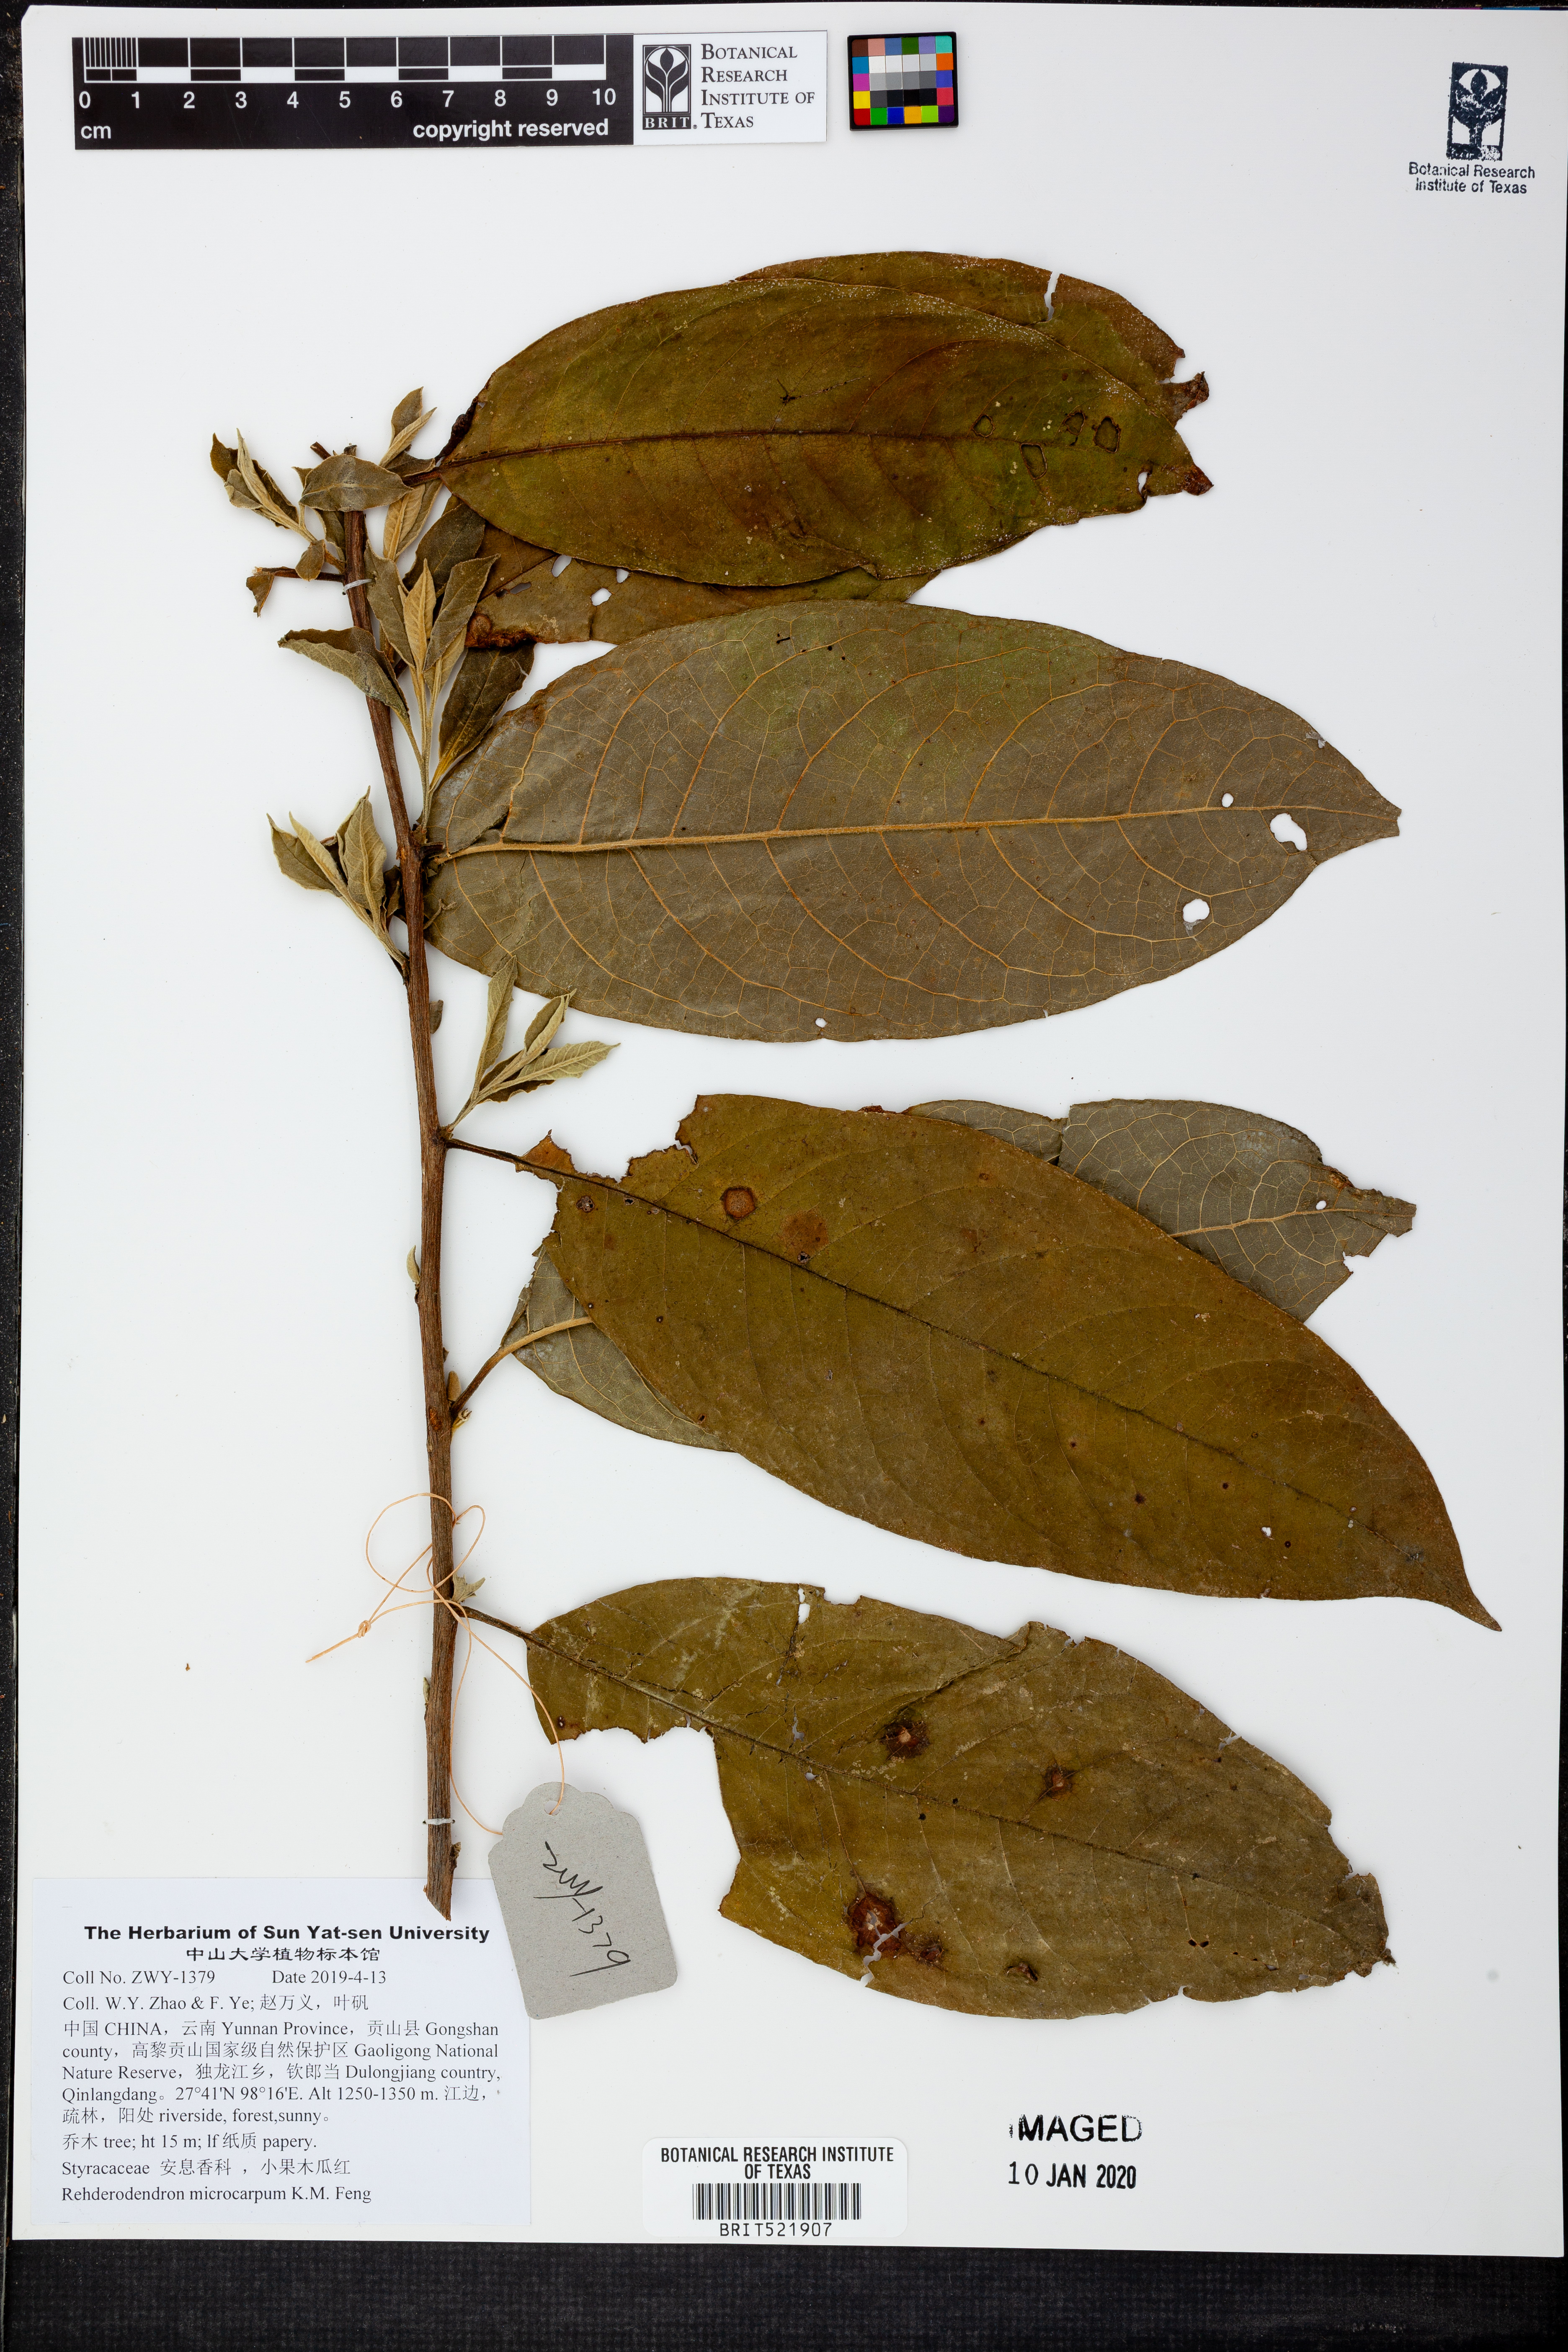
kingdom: Plantae
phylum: Tracheophyta
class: Magnoliopsida
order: Ericales
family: Styracaceae
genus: Rehderodendron
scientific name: Rehderodendron microcarpum
